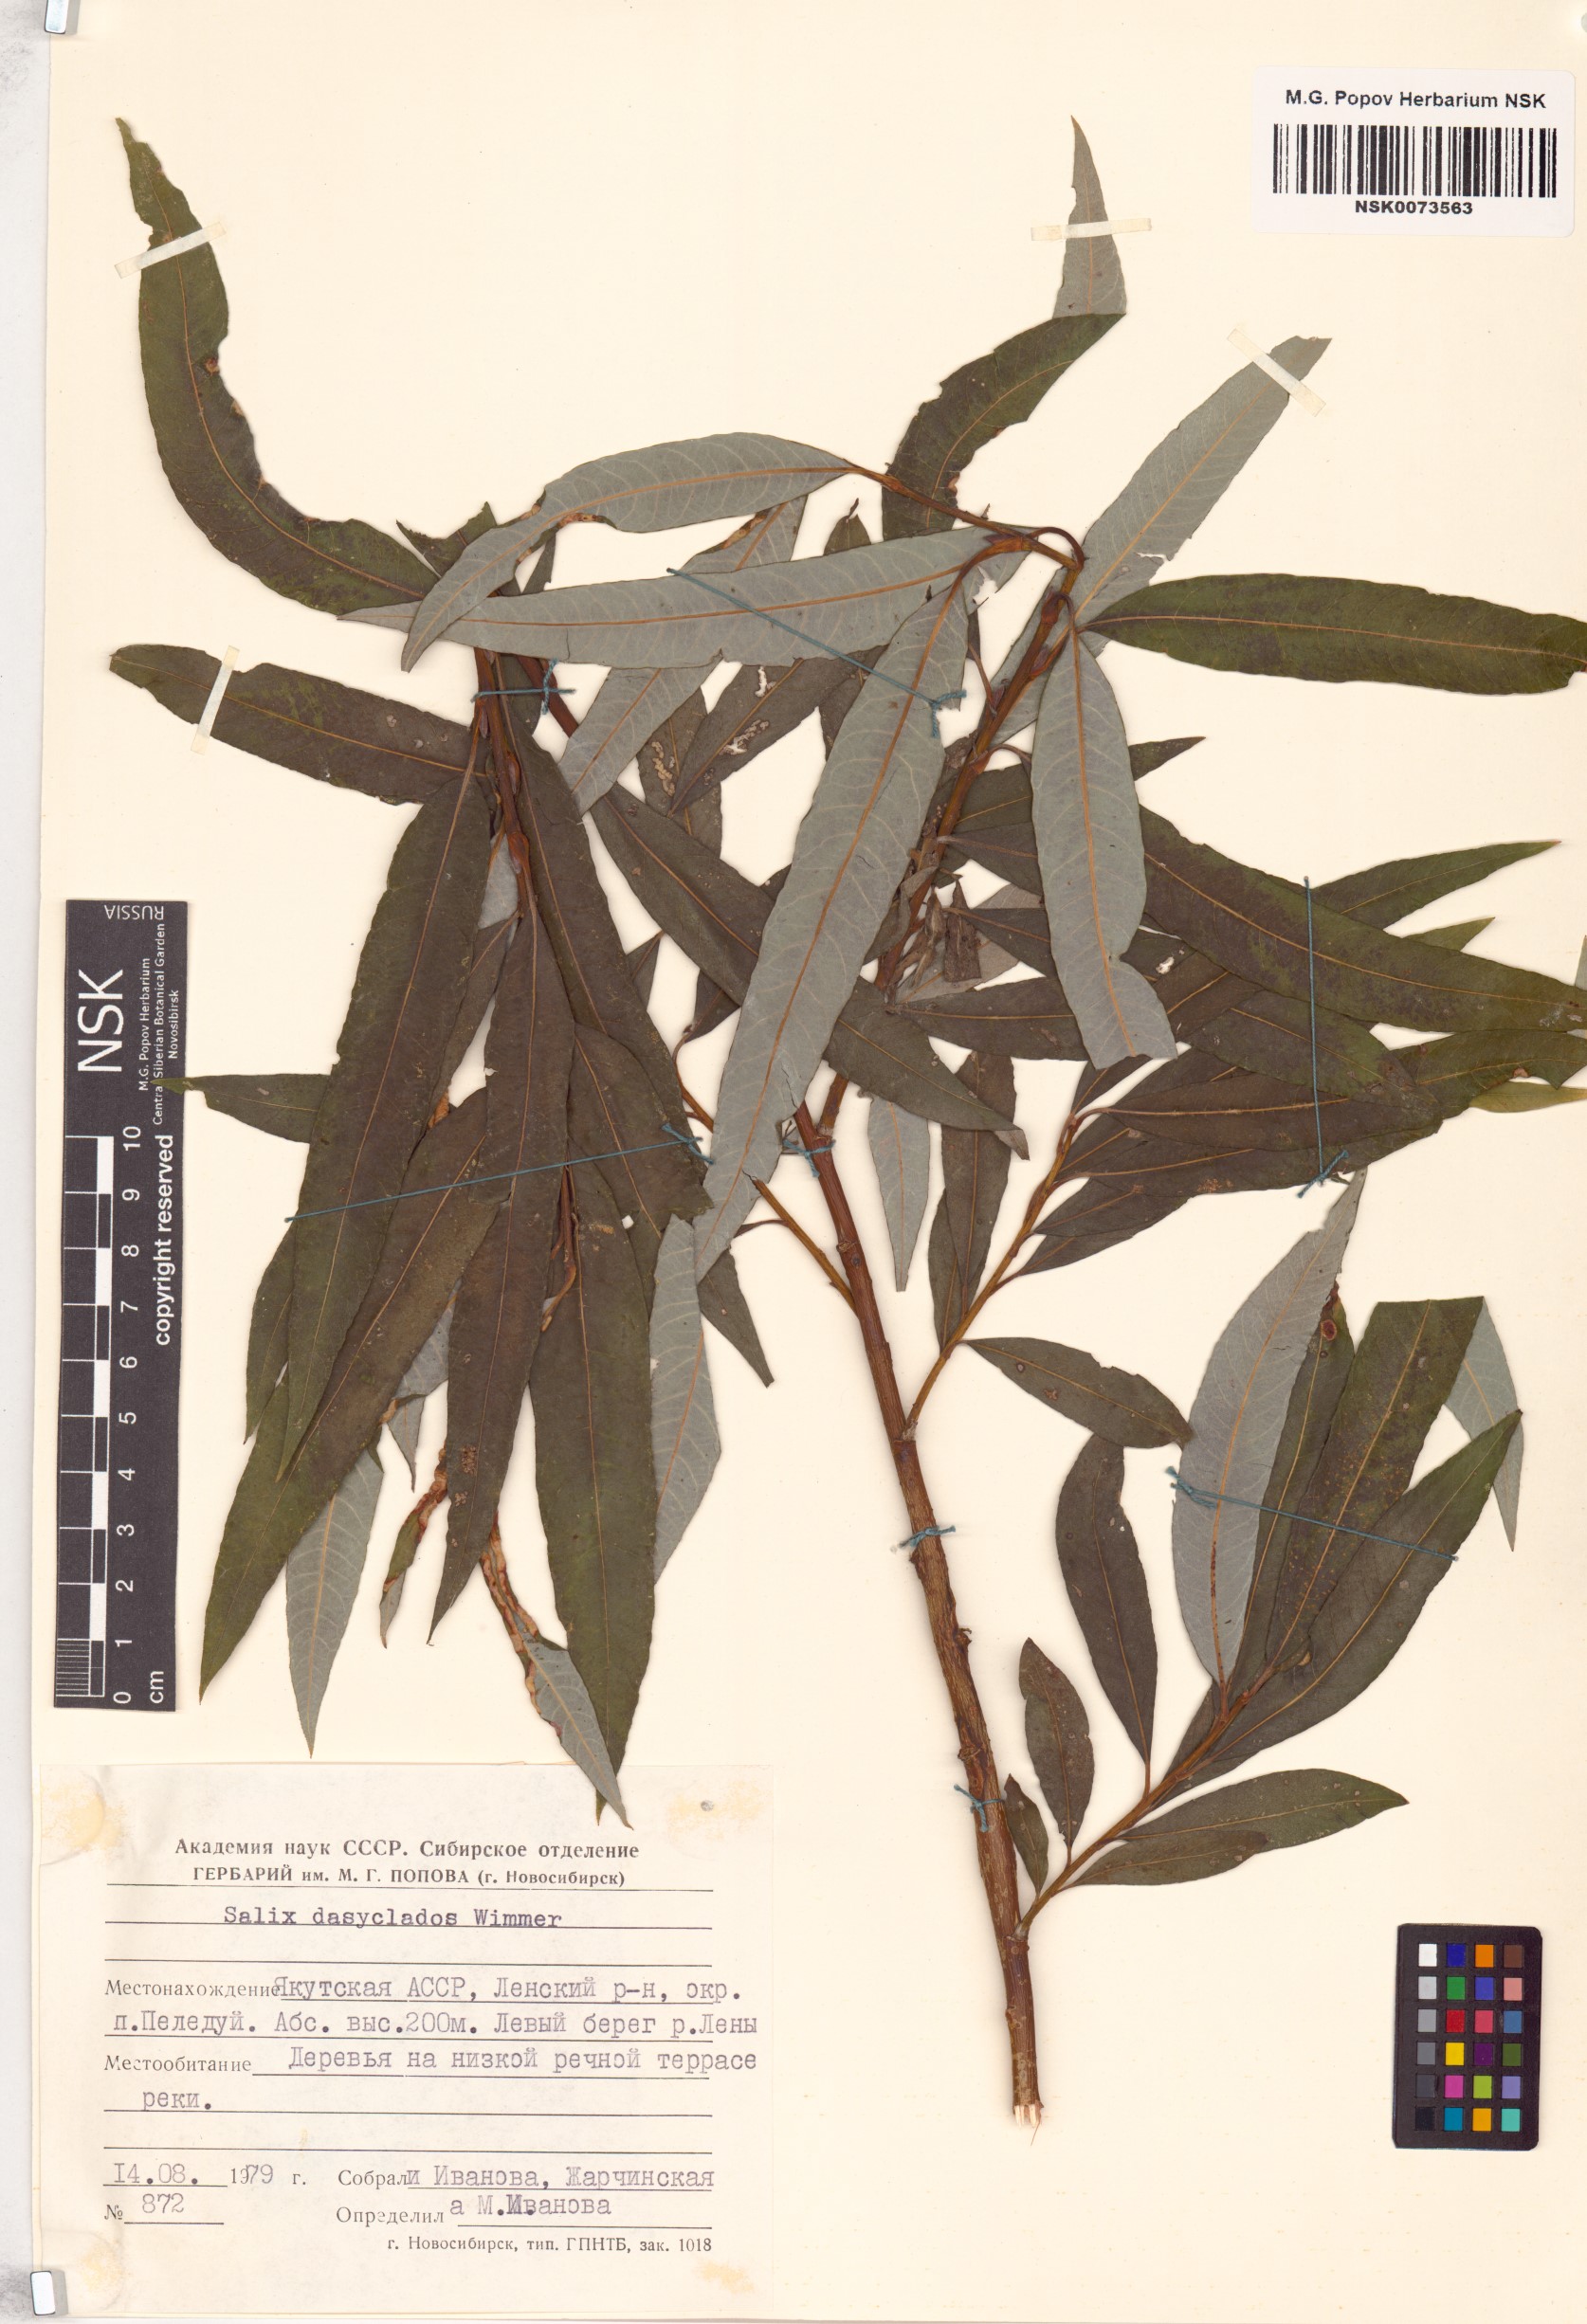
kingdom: Plantae
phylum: Tracheophyta
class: Magnoliopsida
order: Malpighiales
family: Salicaceae
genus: Salix
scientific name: Salix gmelinii
